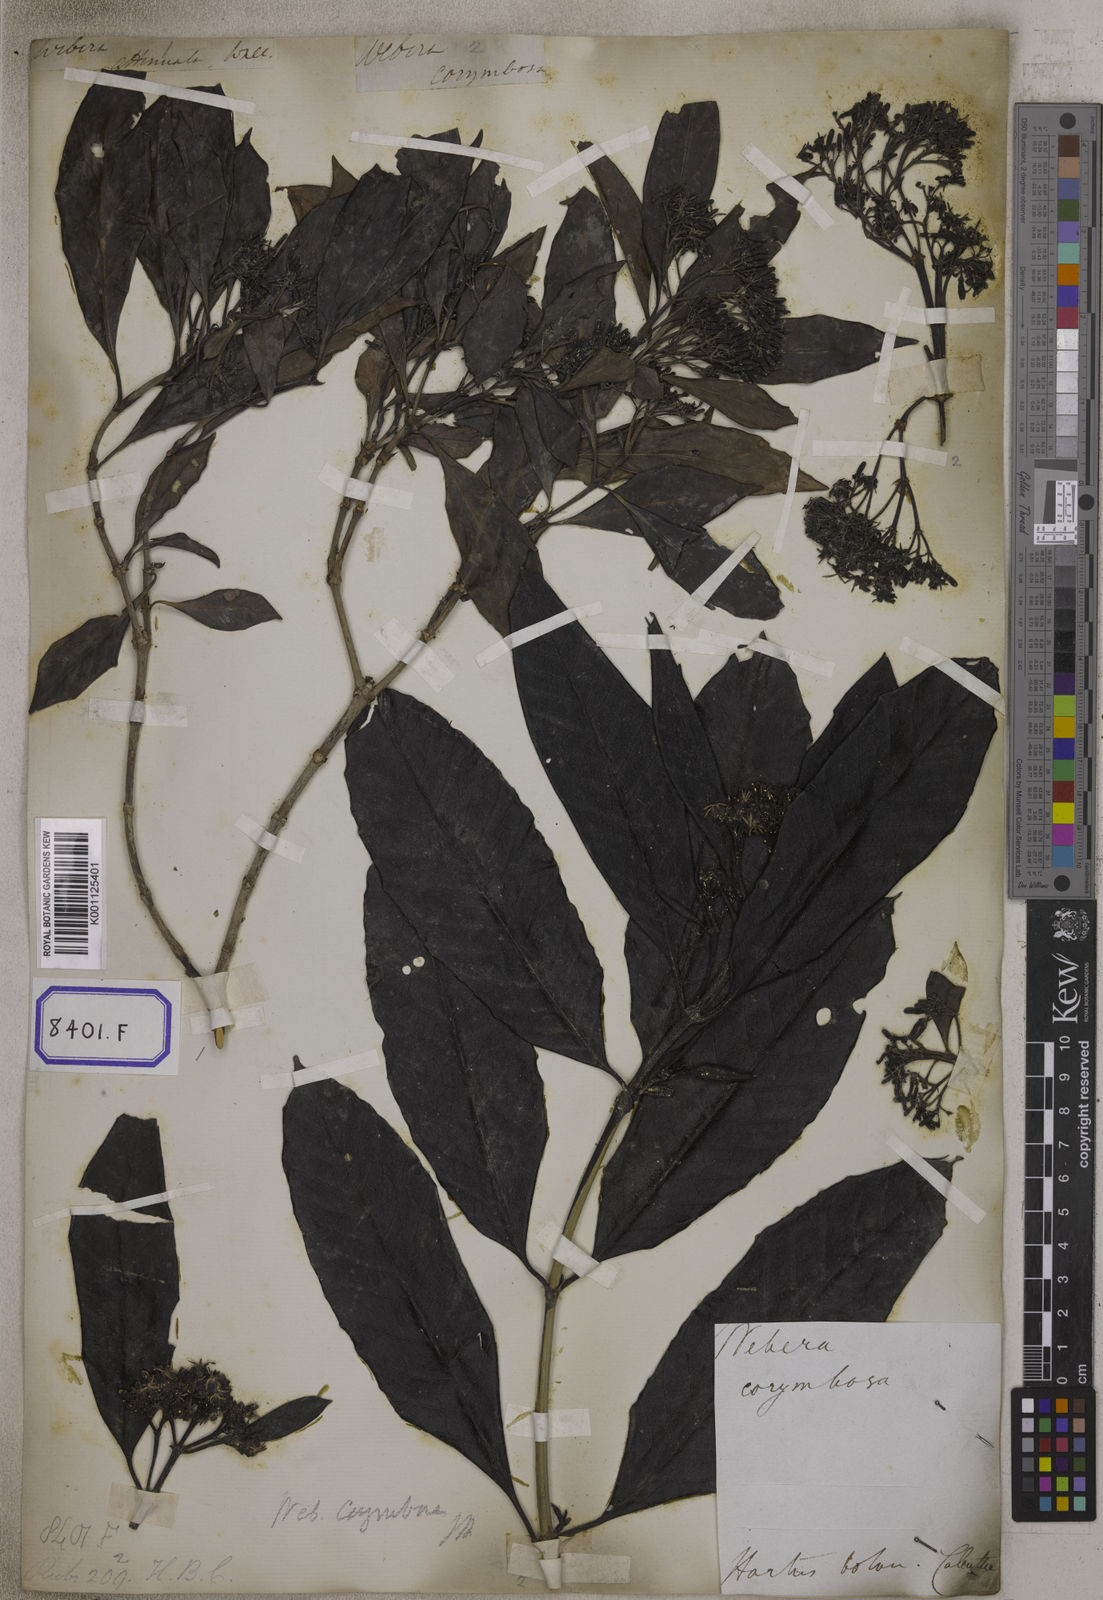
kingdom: Plantae
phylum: Tracheophyta
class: Magnoliopsida
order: Gentianales
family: Rubiaceae
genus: Tarenna
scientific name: Tarenna asiatica
